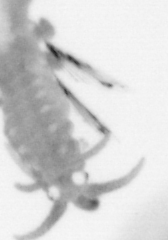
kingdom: Animalia
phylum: Annelida
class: Polychaeta
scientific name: Polychaeta
